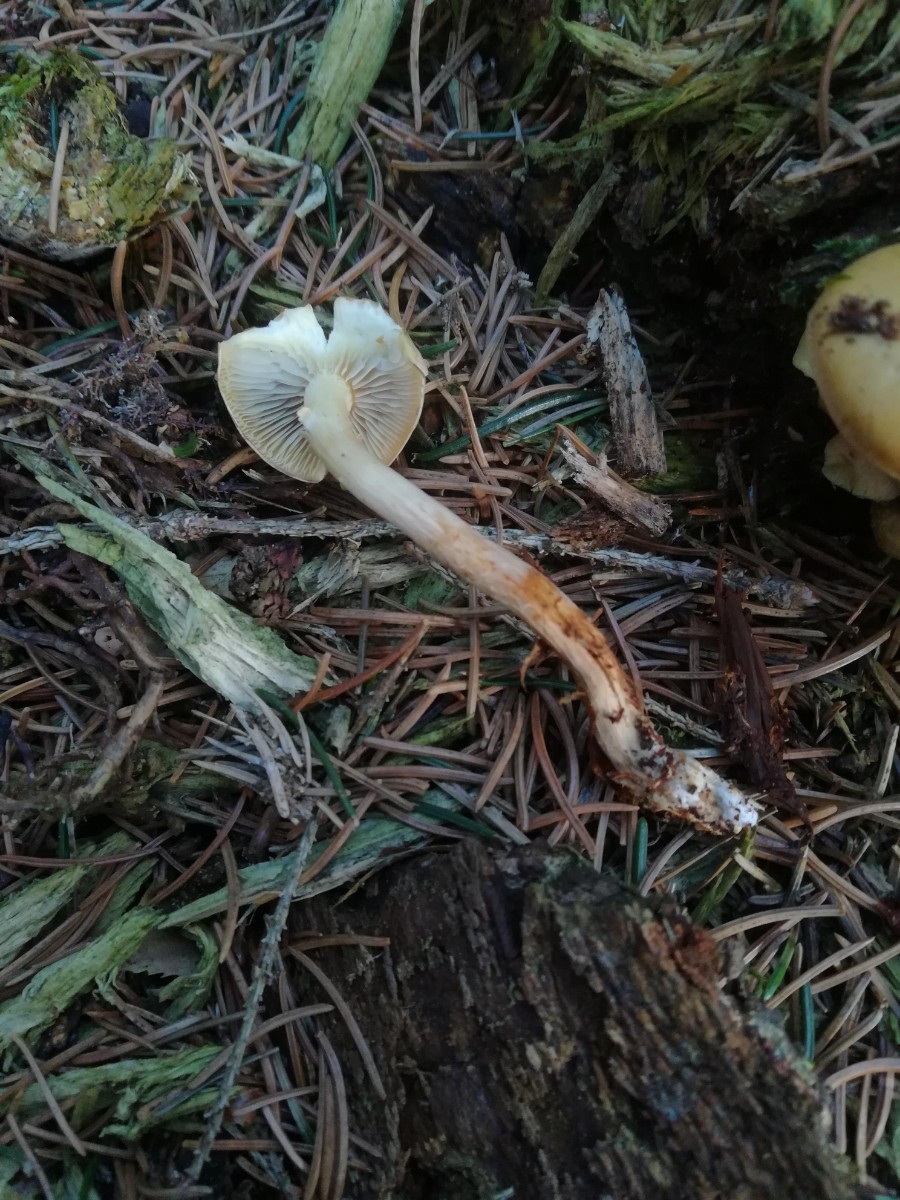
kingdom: Fungi
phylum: Basidiomycota
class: Agaricomycetes
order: Agaricales
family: Strophariaceae
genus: Hypholoma
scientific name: Hypholoma capnoides
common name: gran-svovlhat
